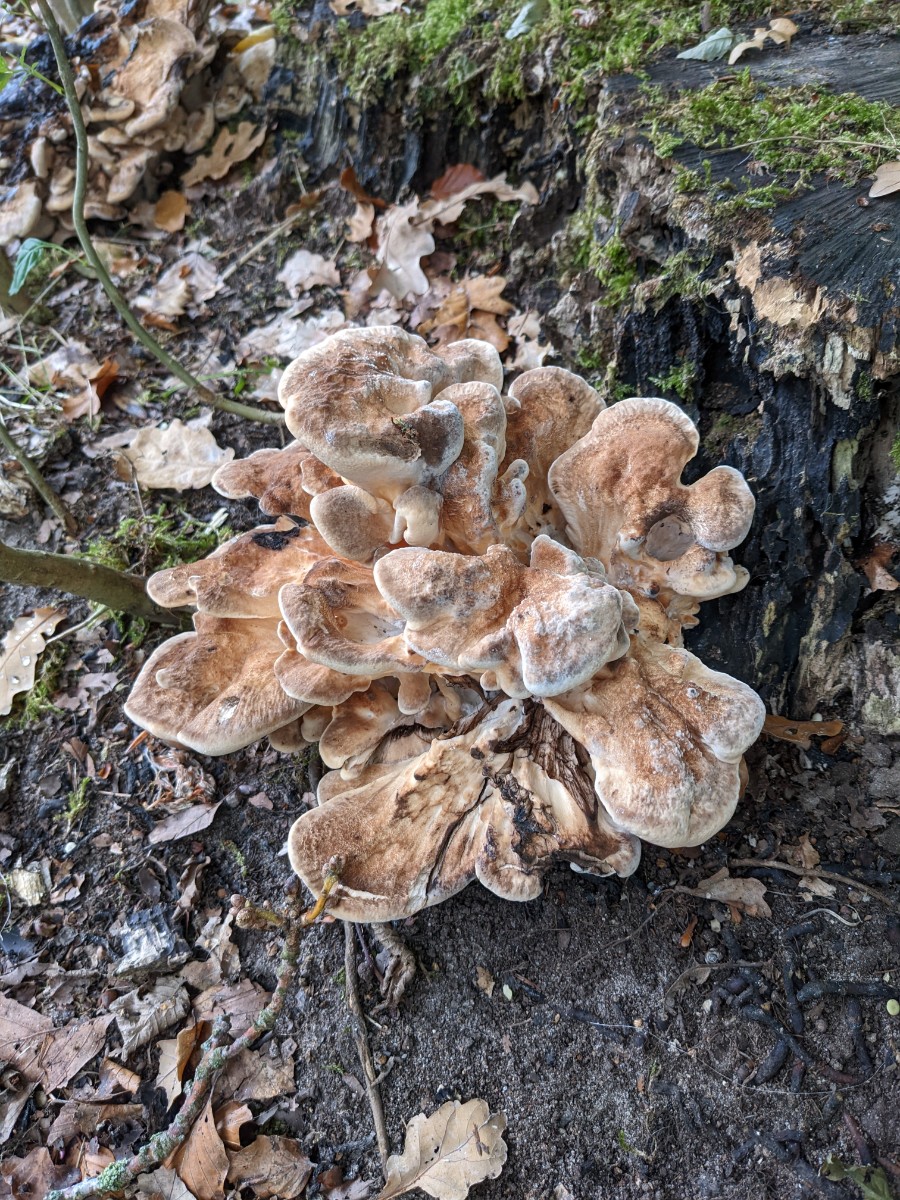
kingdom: Fungi
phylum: Basidiomycota
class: Agaricomycetes
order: Polyporales
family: Meripilaceae
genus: Meripilus
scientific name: Meripilus giganteus
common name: kæmpeporesvamp
